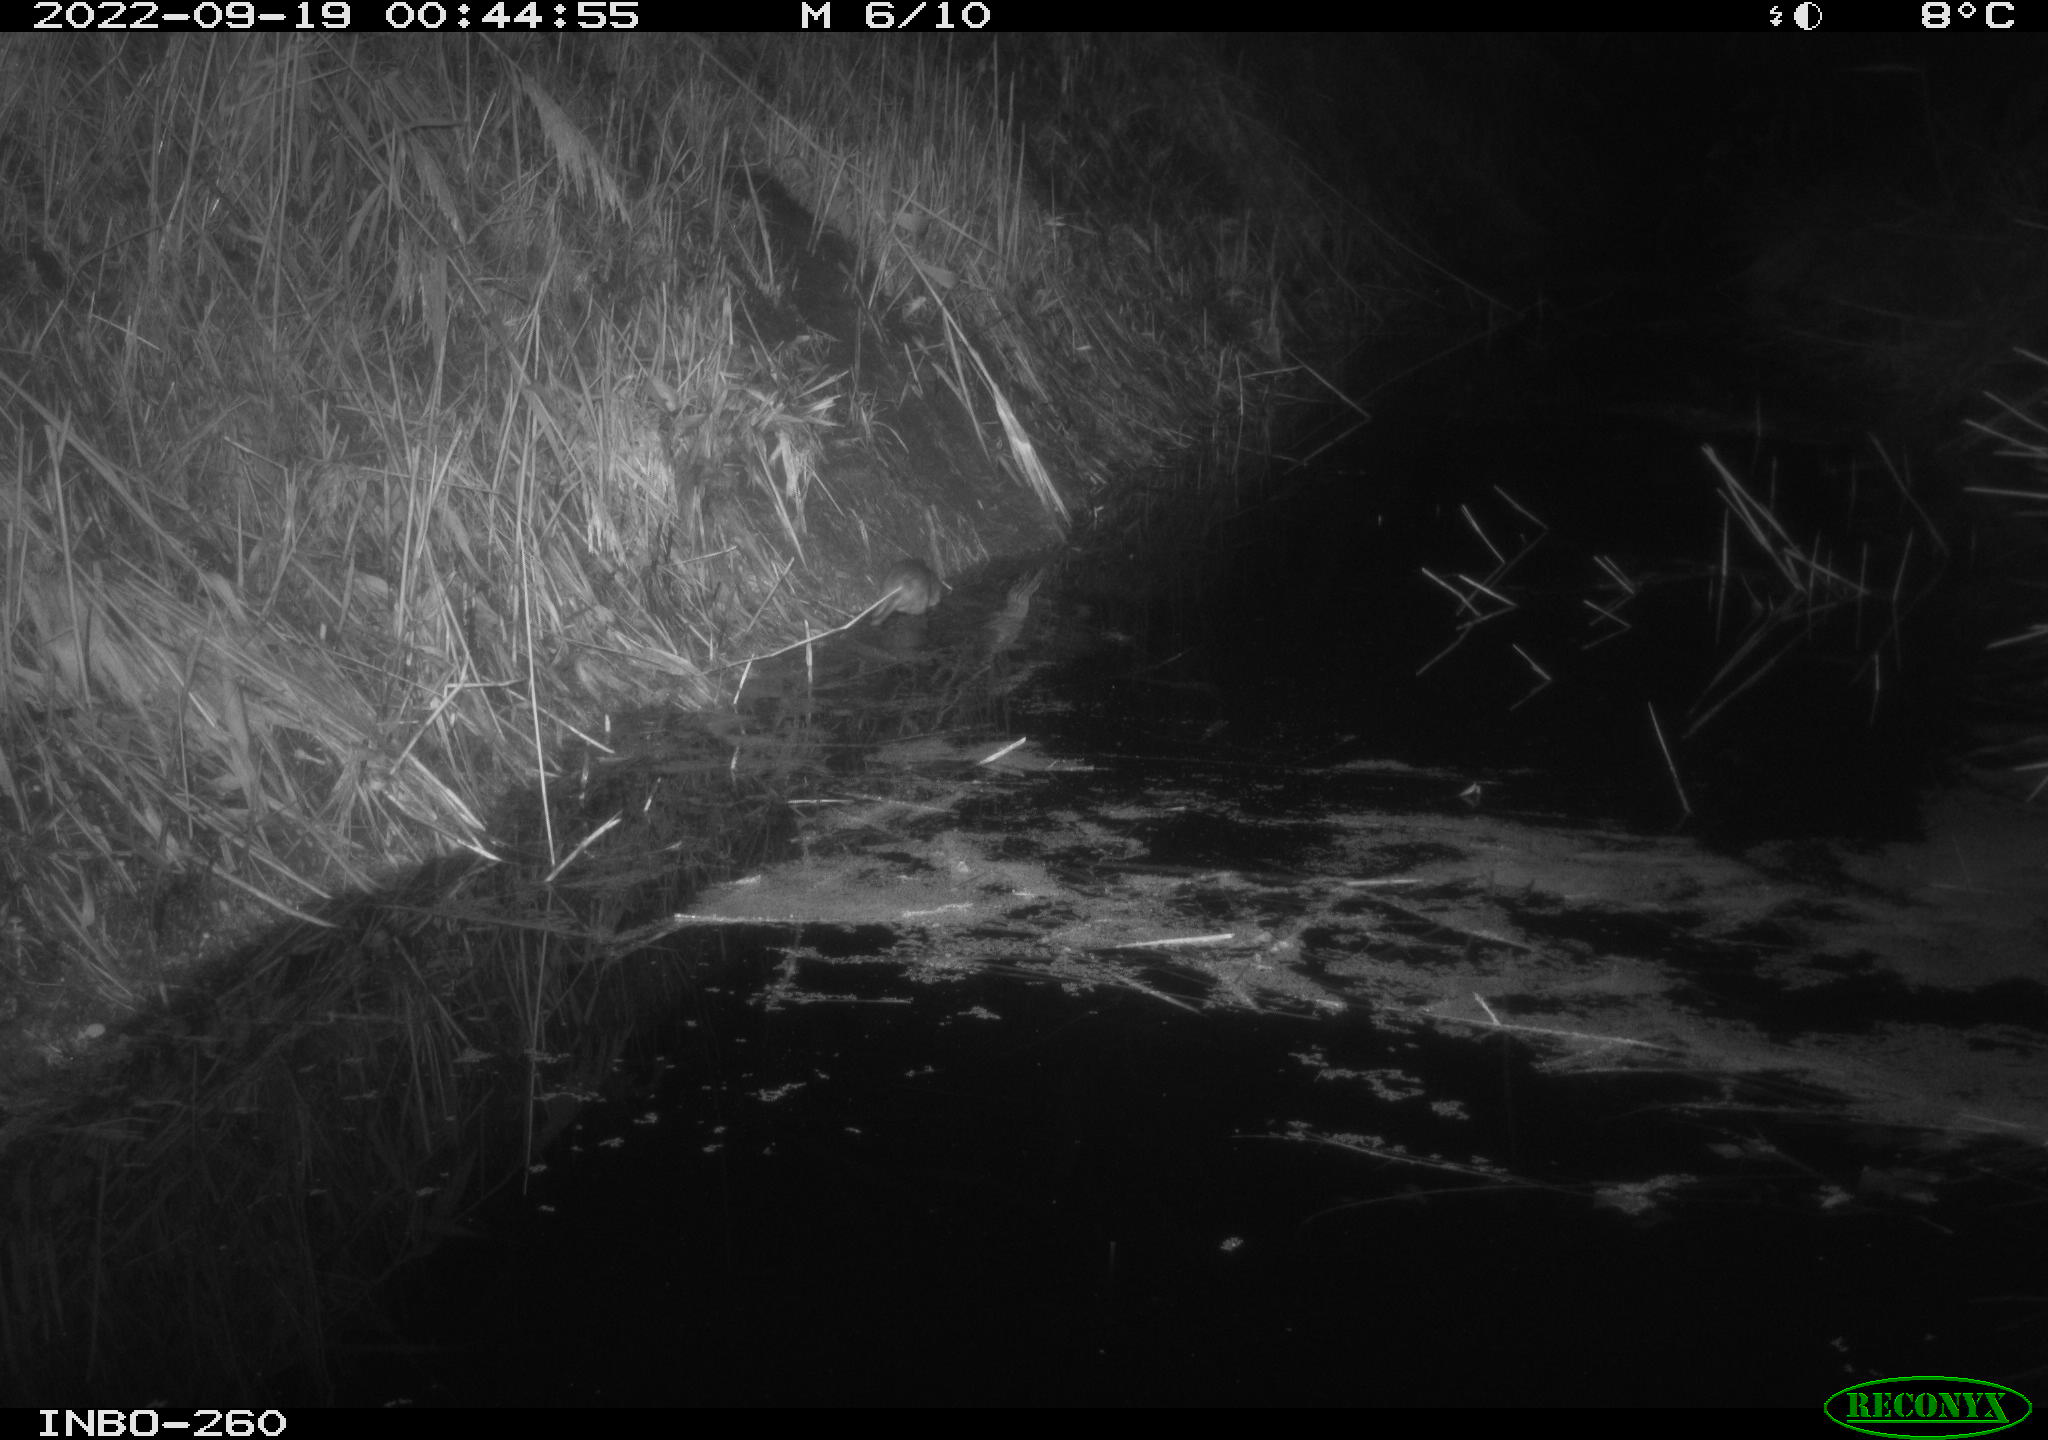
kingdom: Animalia
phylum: Chordata
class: Mammalia
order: Rodentia
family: Muridae
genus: Rattus
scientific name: Rattus norvegicus
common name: Brown rat
